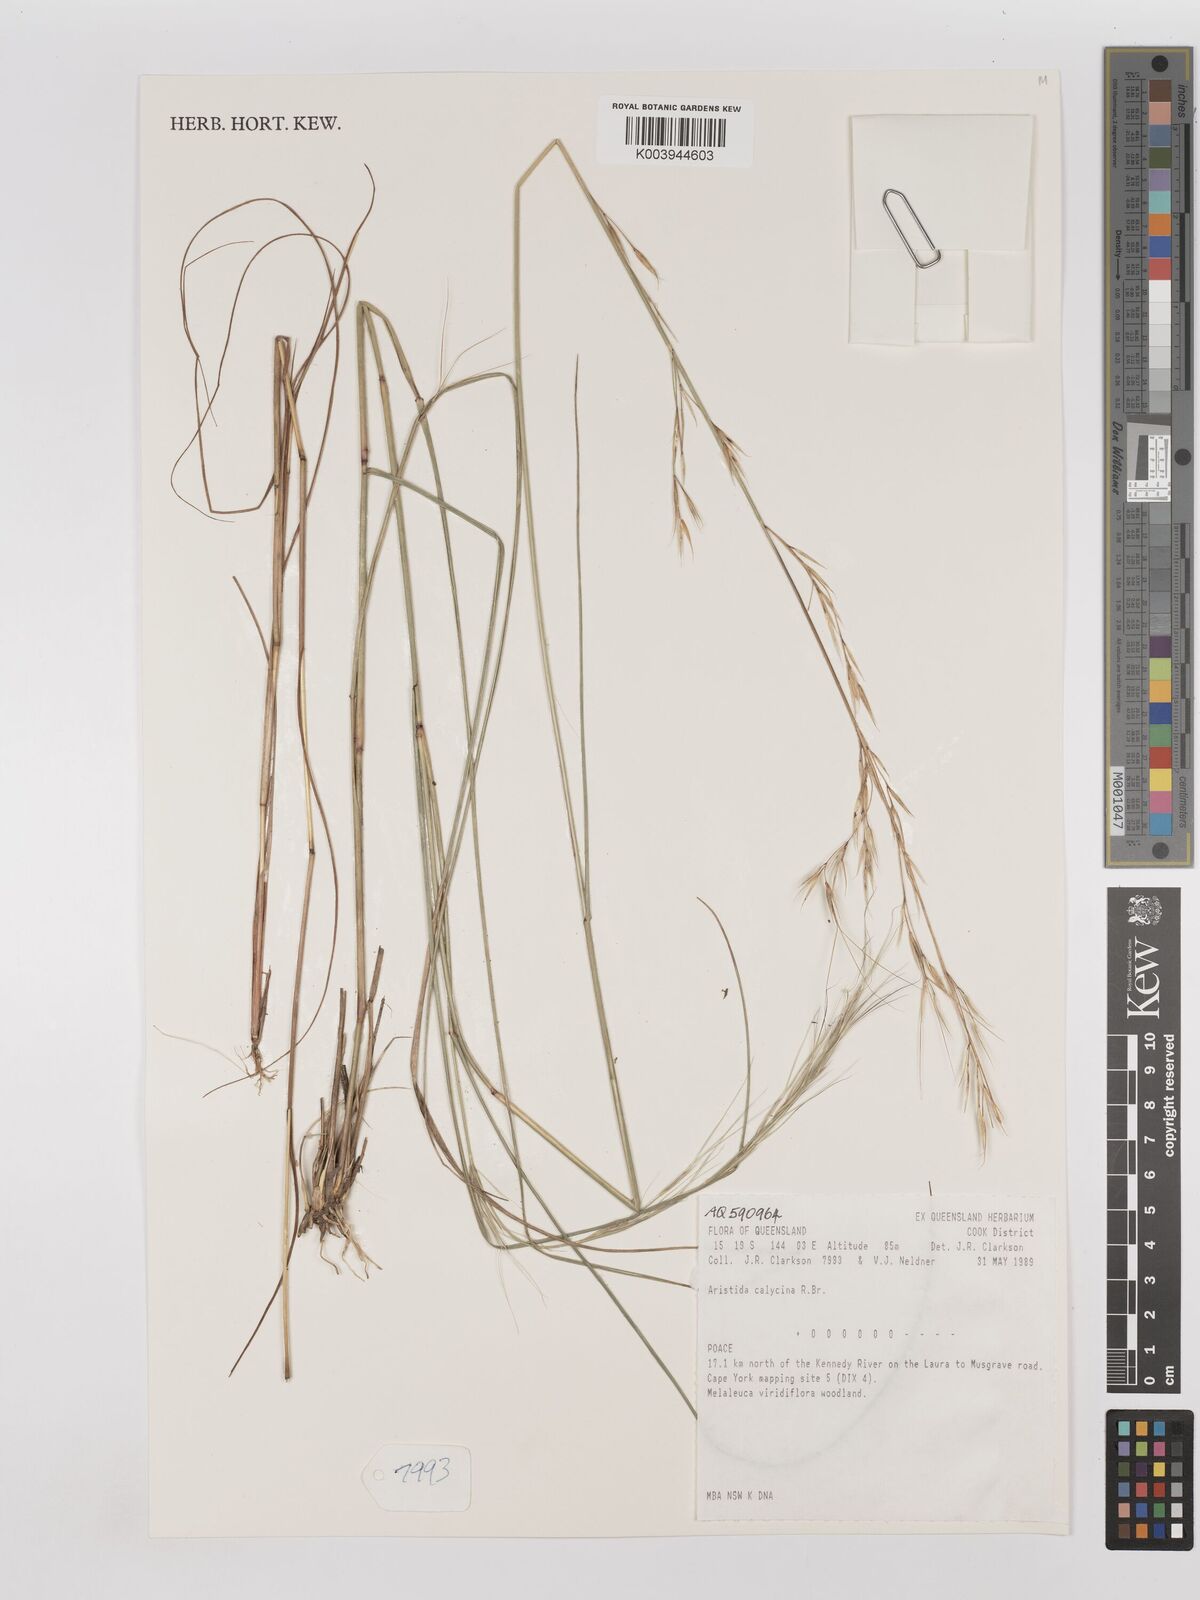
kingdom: Plantae
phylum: Tracheophyta
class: Liliopsida
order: Poales
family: Poaceae
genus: Aristida
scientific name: Aristida calycina
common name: Dark wire grass
